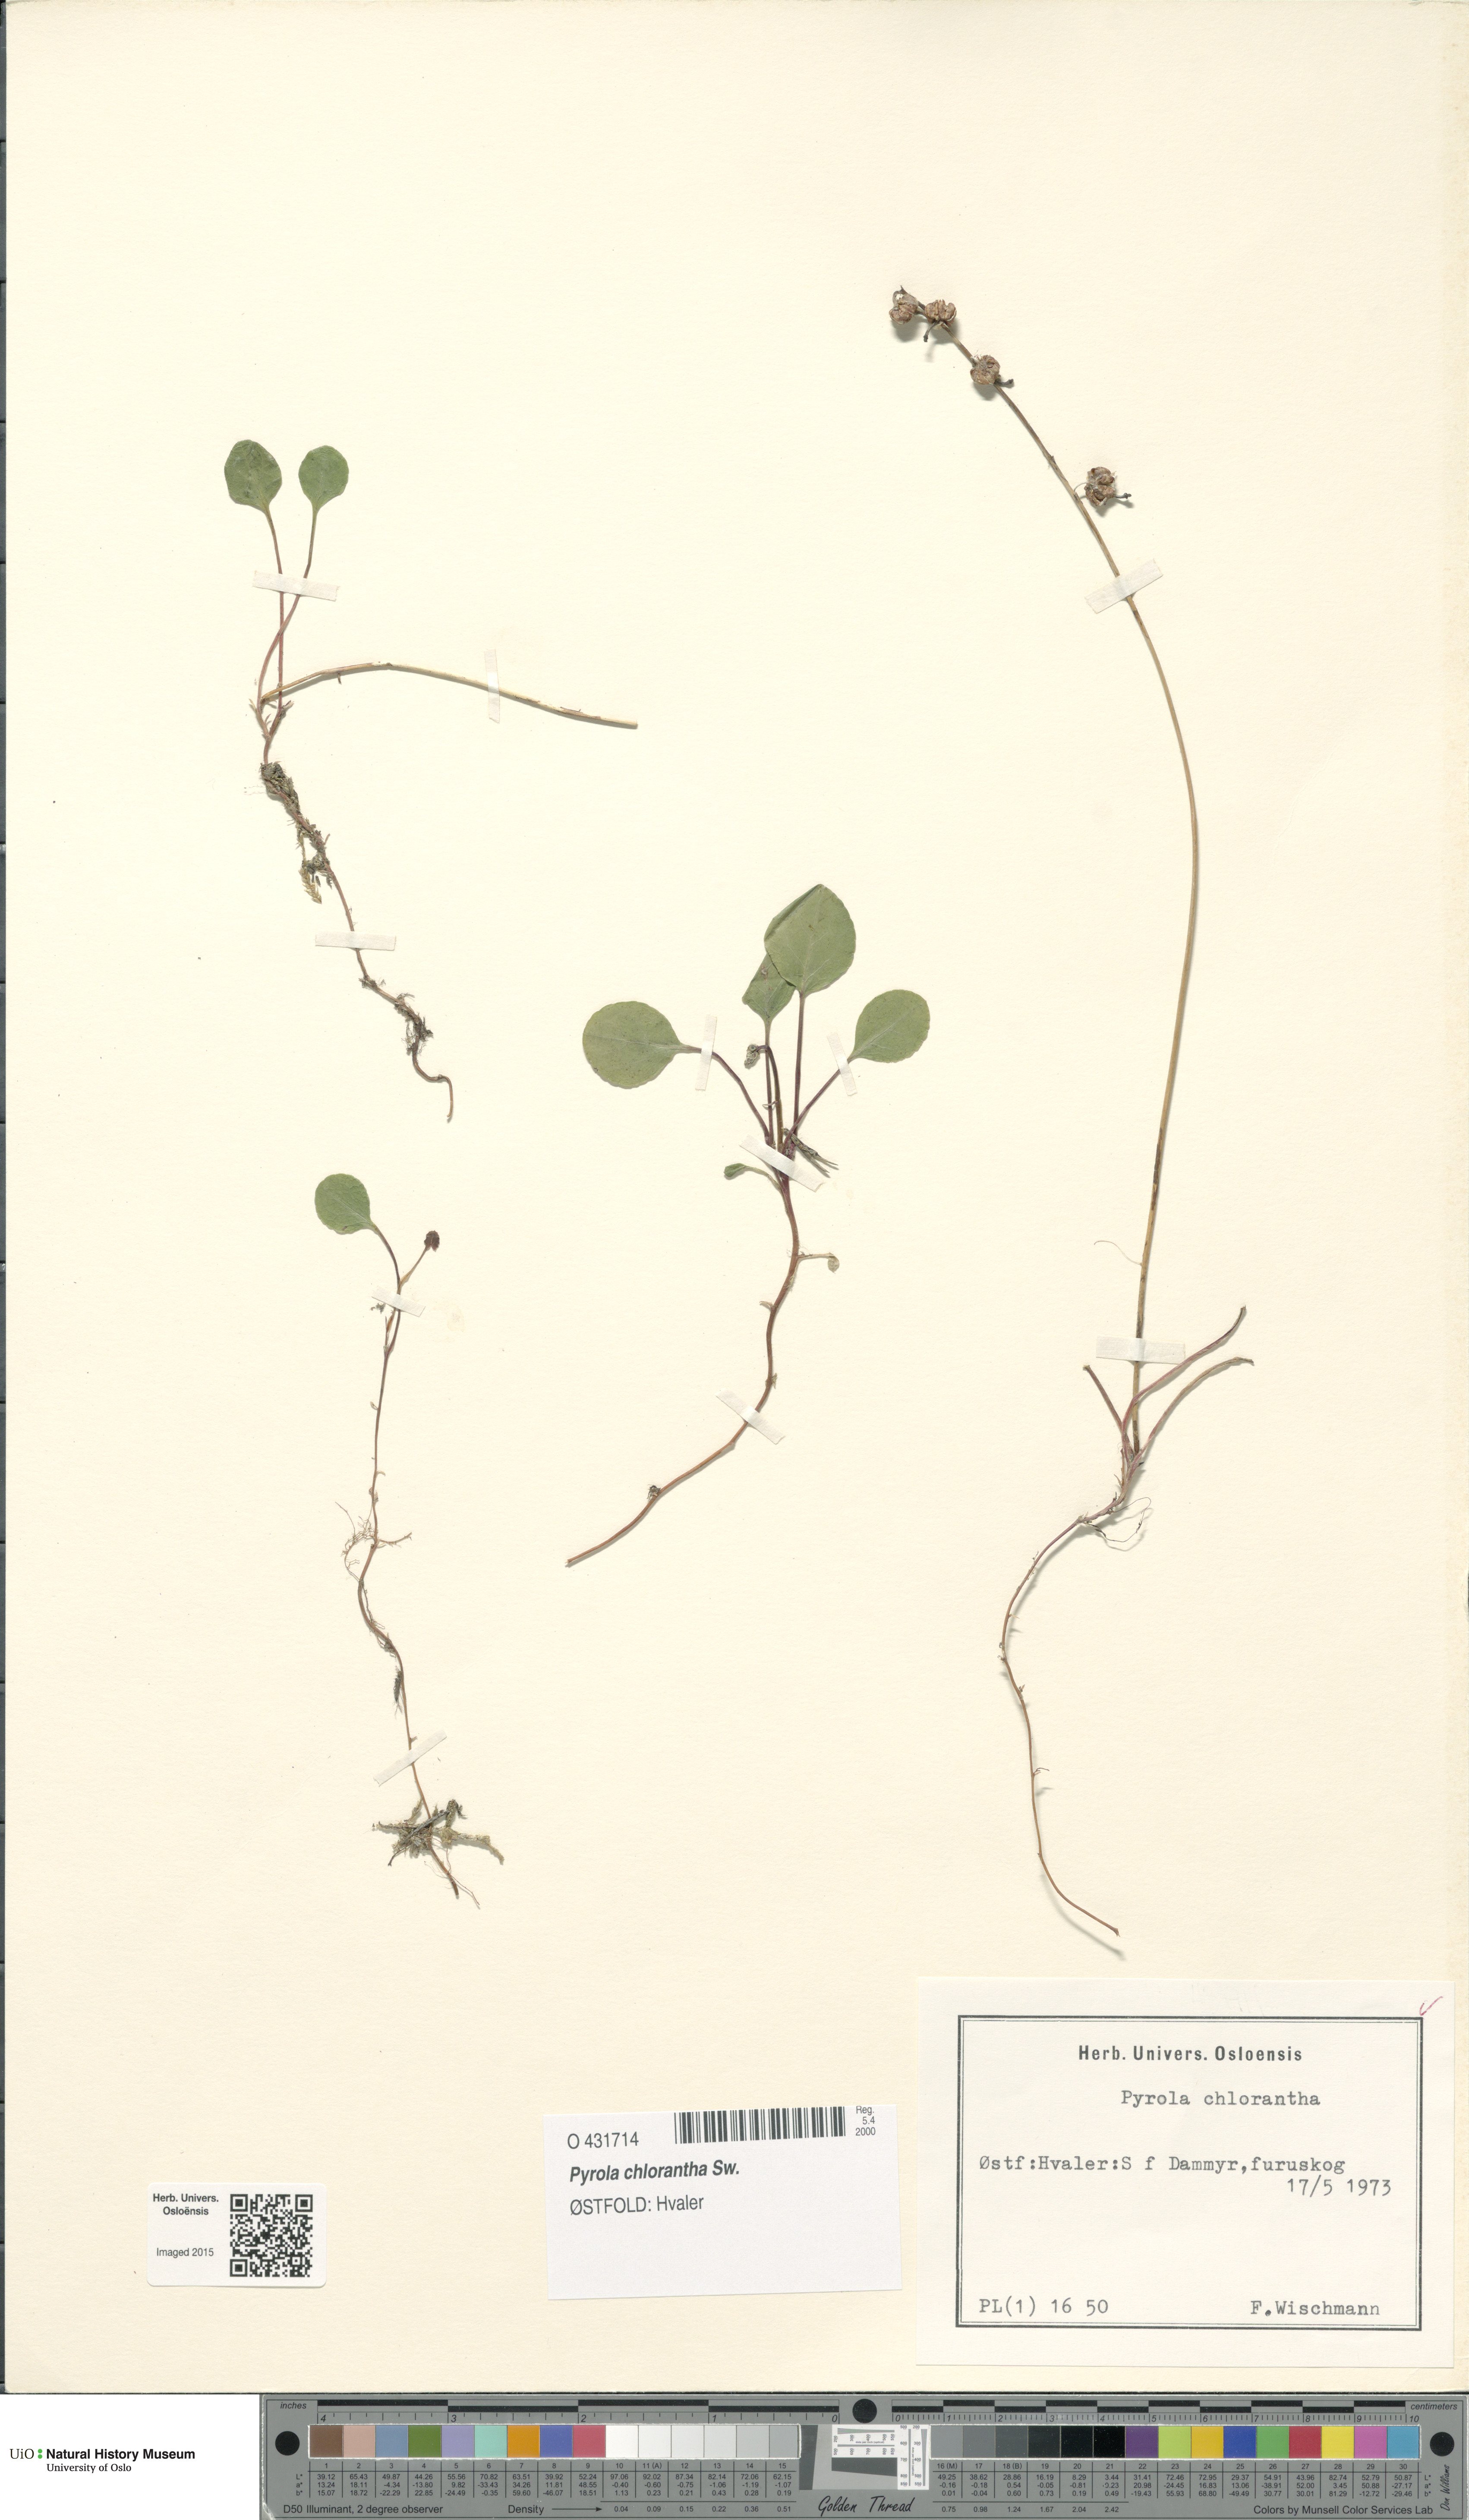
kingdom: Plantae
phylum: Tracheophyta
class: Magnoliopsida
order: Ericales
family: Ericaceae
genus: Pyrola
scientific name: Pyrola chlorantha
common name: Green wintergreen
